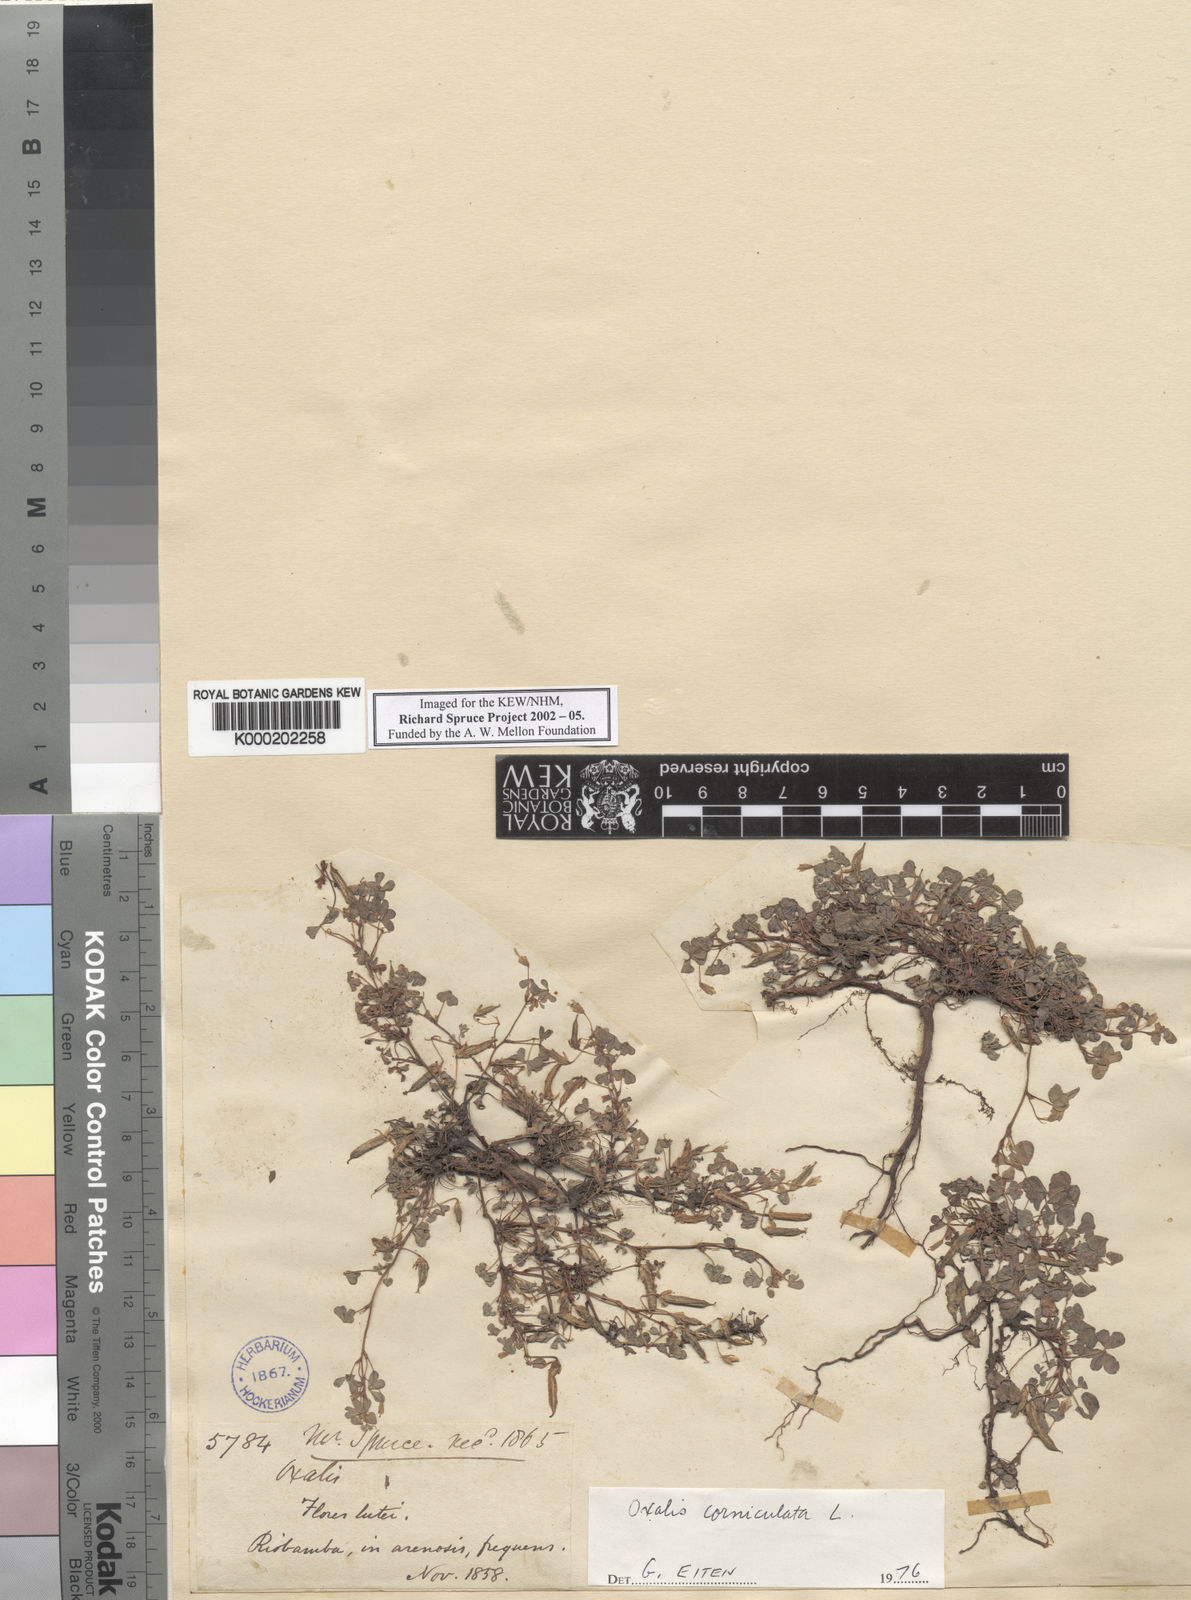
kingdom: Plantae
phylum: Tracheophyta
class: Magnoliopsida
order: Oxalidales
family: Oxalidaceae
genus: Oxalis
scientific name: Oxalis corniculata
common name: Procumbent yellow-sorrel
